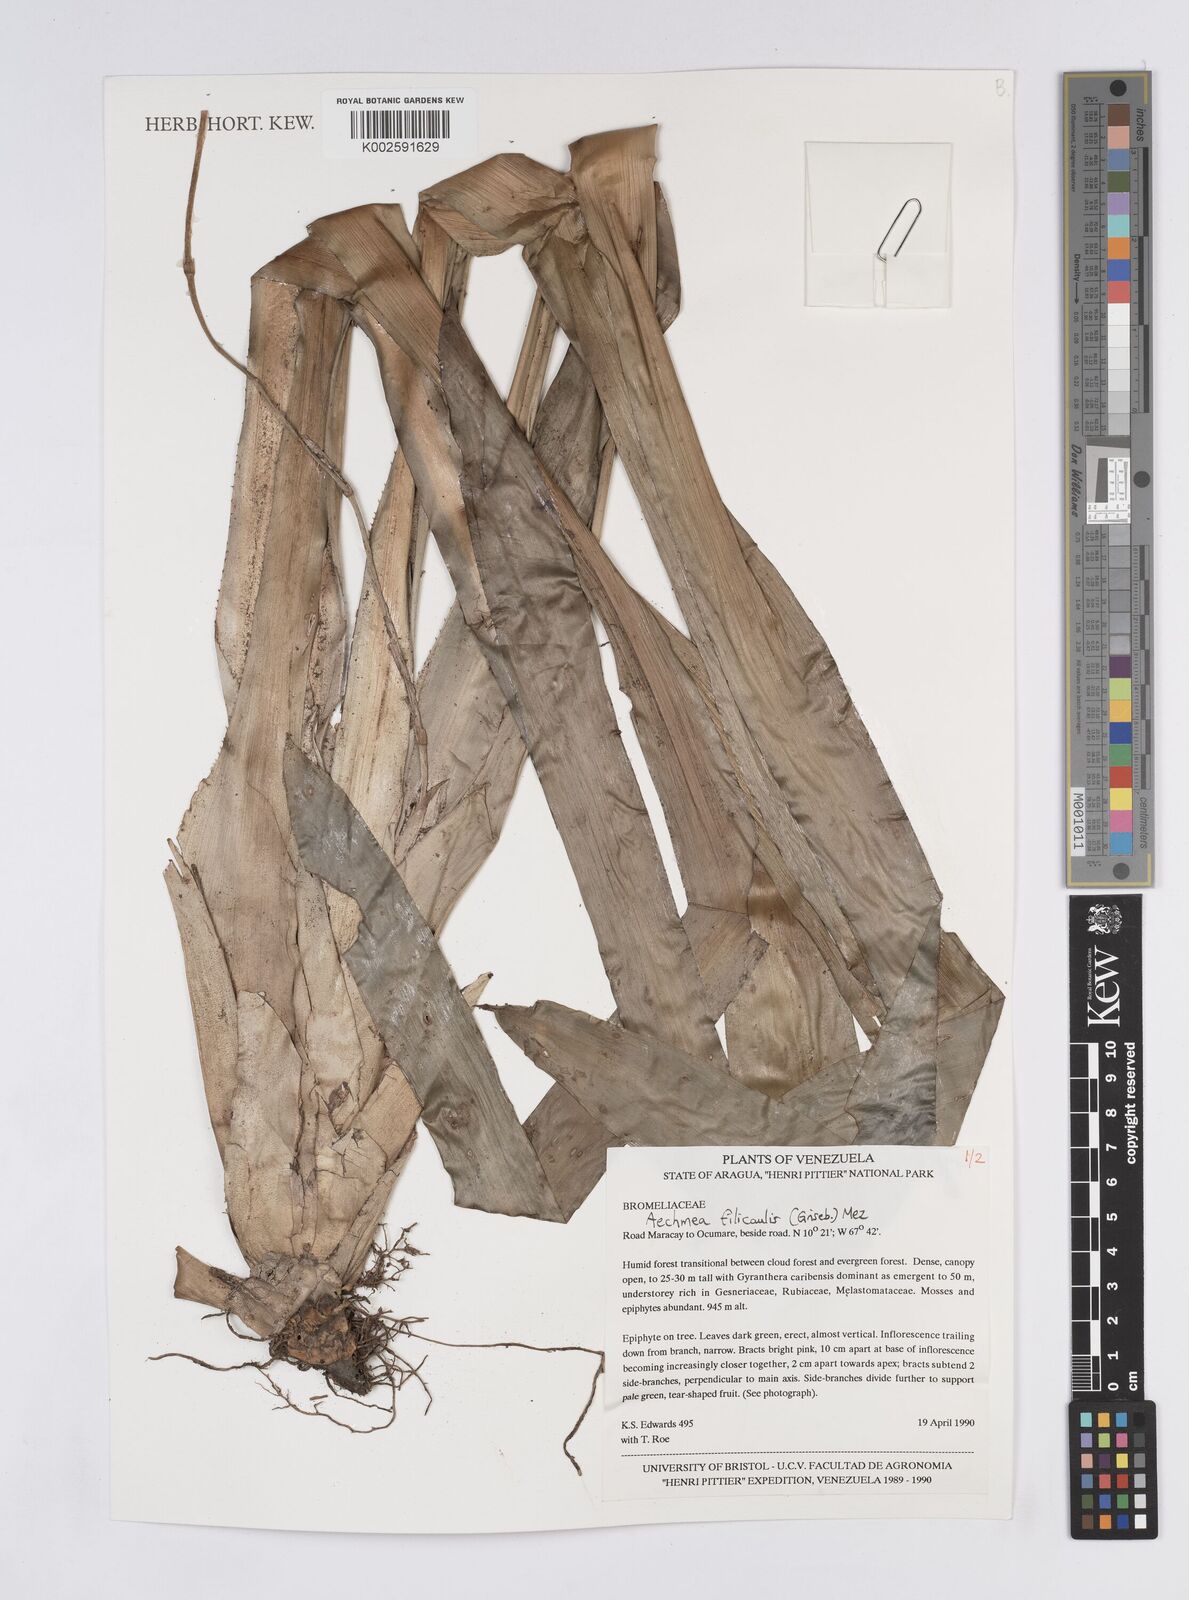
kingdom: Plantae
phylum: Tracheophyta
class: Liliopsida
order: Poales
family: Bromeliaceae
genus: Aechmea
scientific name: Aechmea filicaulis
